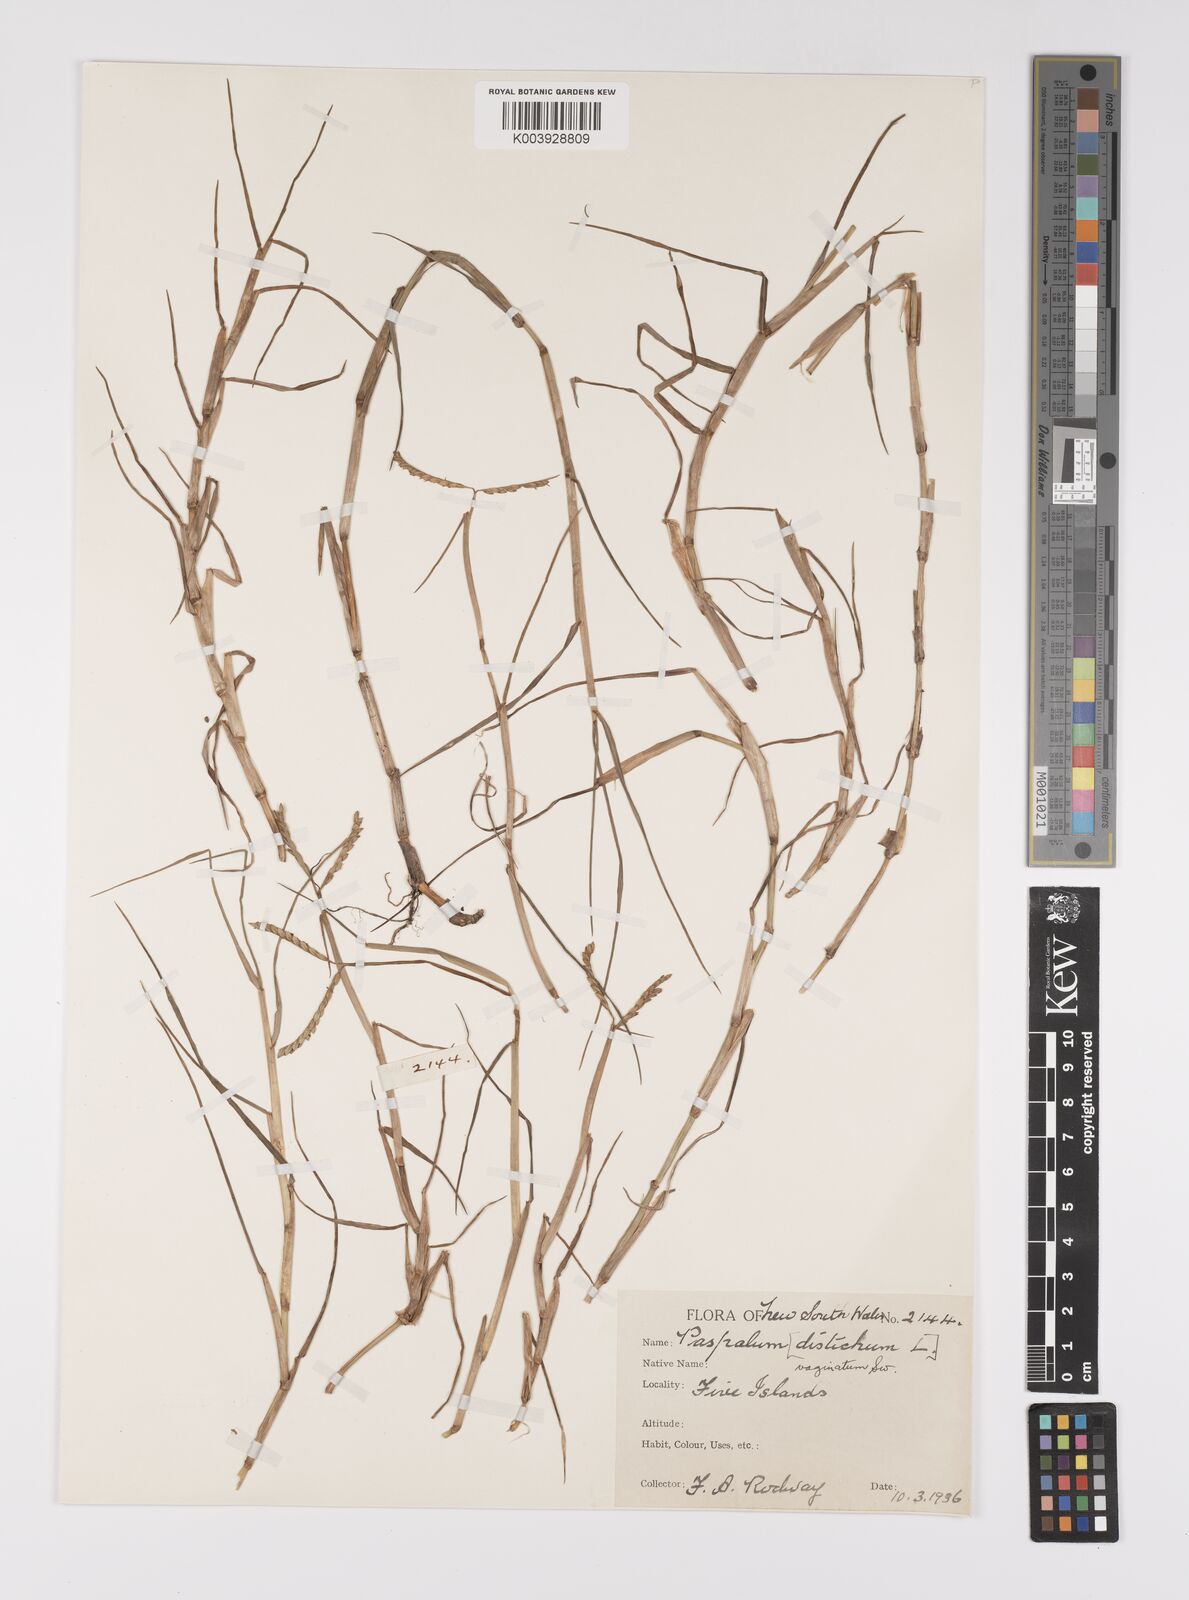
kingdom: Plantae
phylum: Tracheophyta
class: Liliopsida
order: Poales
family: Poaceae
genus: Paspalum
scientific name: Paspalum vaginatum
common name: Seashore paspalum
